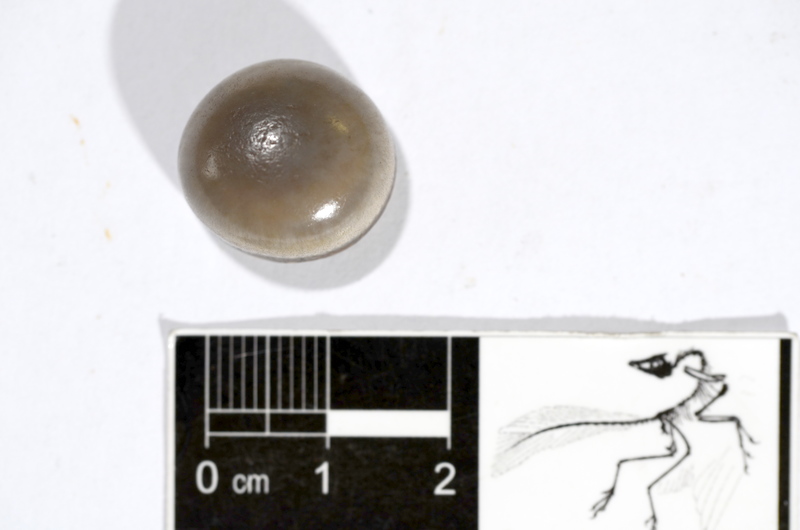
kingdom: Animalia
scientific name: Animalia
